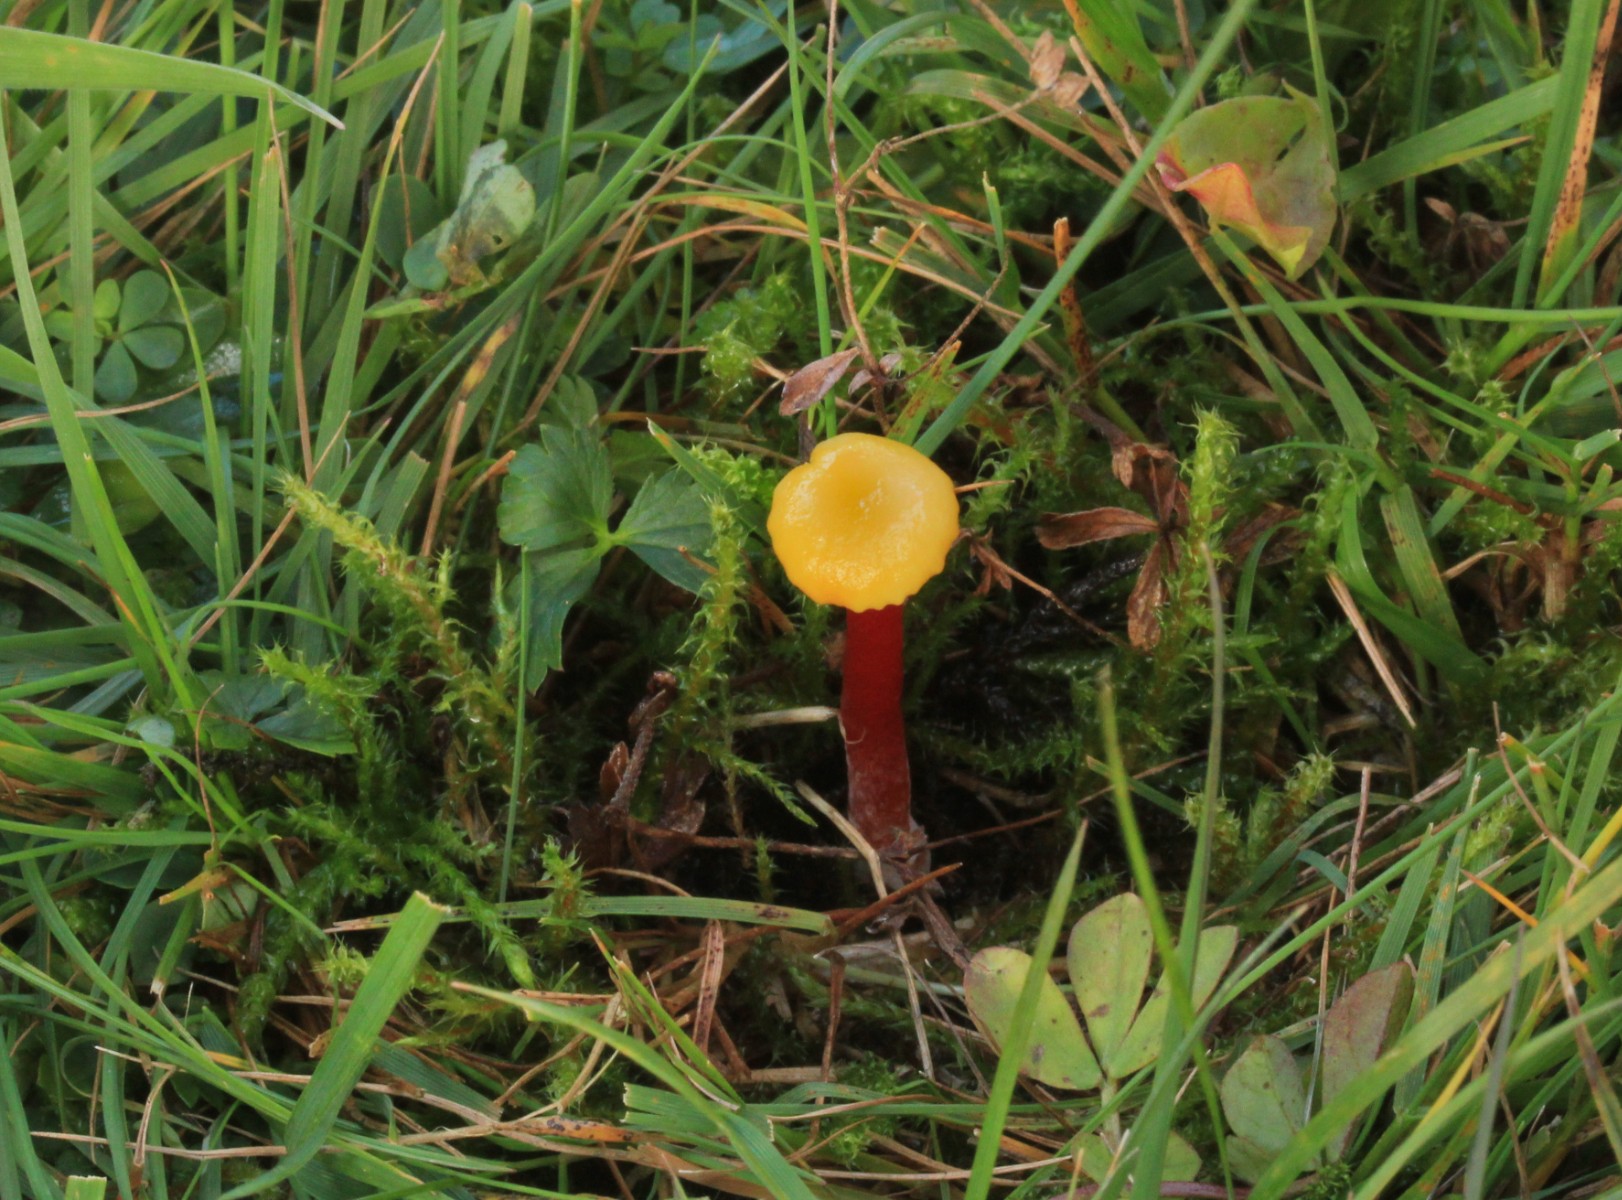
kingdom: Fungi
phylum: Basidiomycota
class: Agaricomycetes
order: Agaricales
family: Hygrophoraceae
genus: Hygrocybe
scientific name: Hygrocybe insipida
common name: liden vokshat
